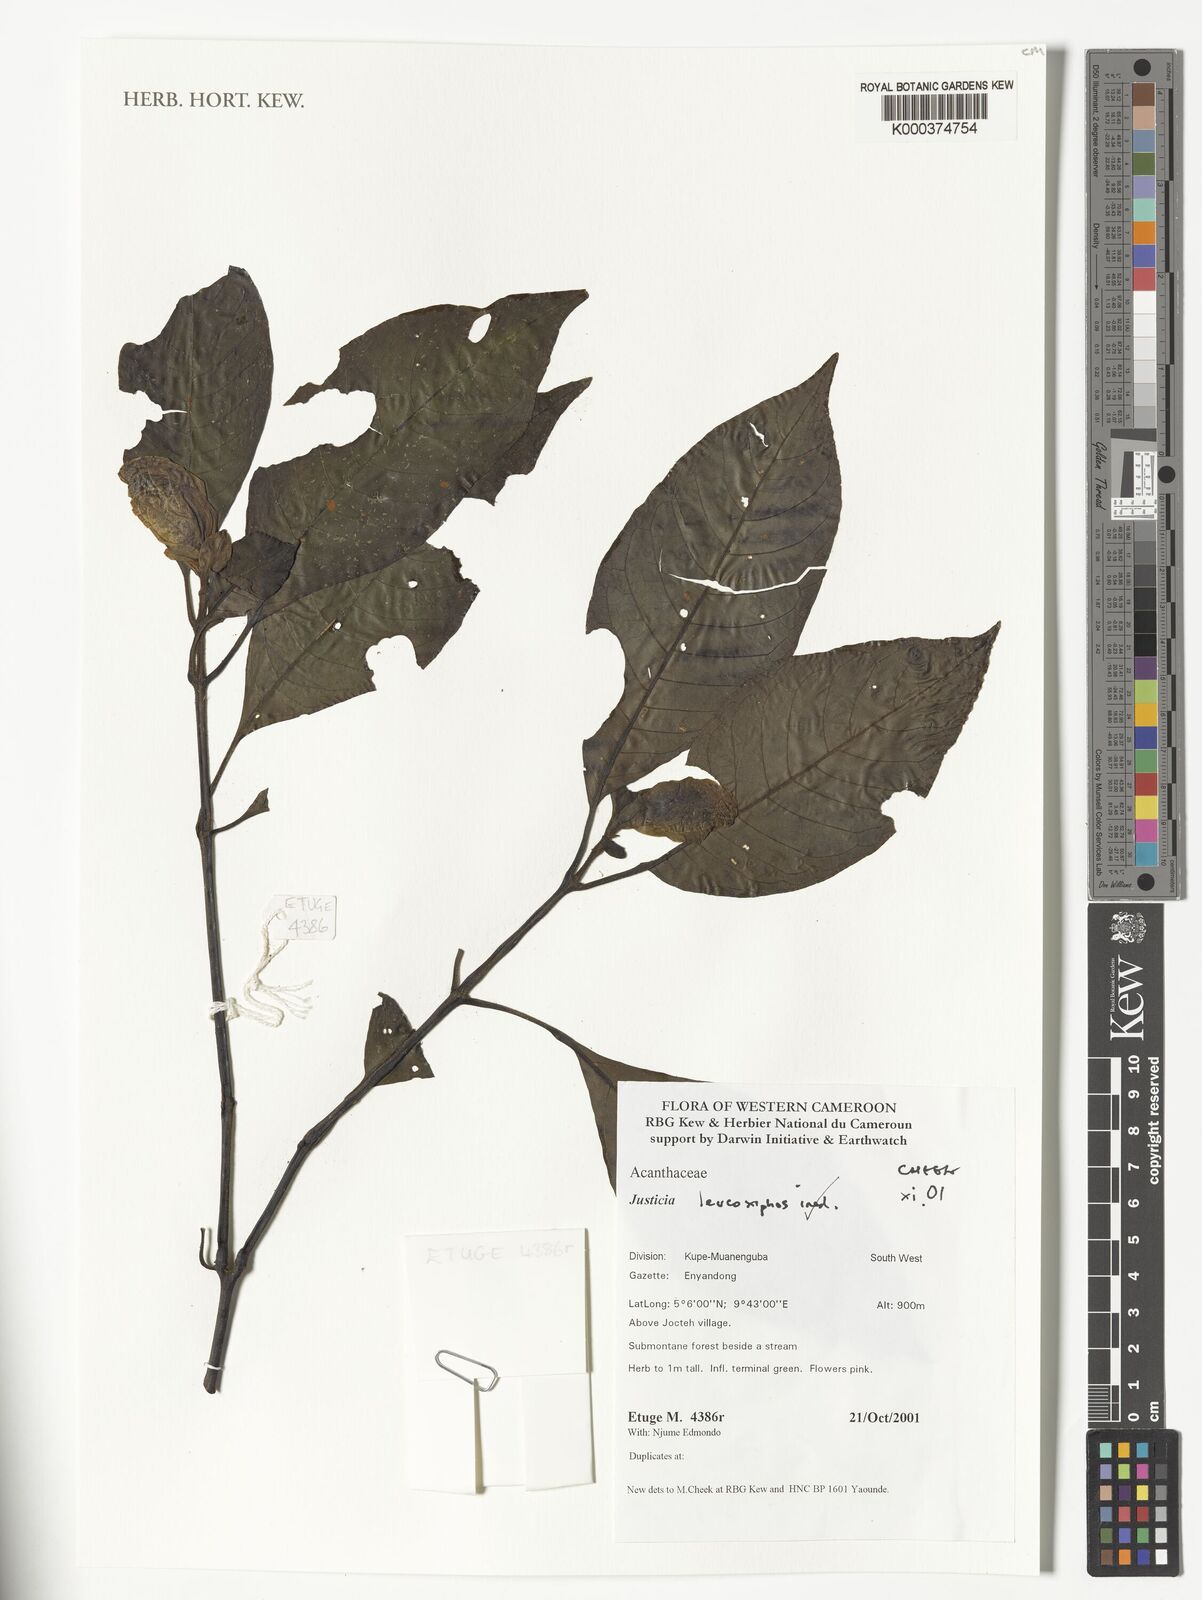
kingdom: Plantae
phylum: Tracheophyta
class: Magnoliopsida
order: Lamiales
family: Acanthaceae
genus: Justicia
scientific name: Justicia leucoxiphus
